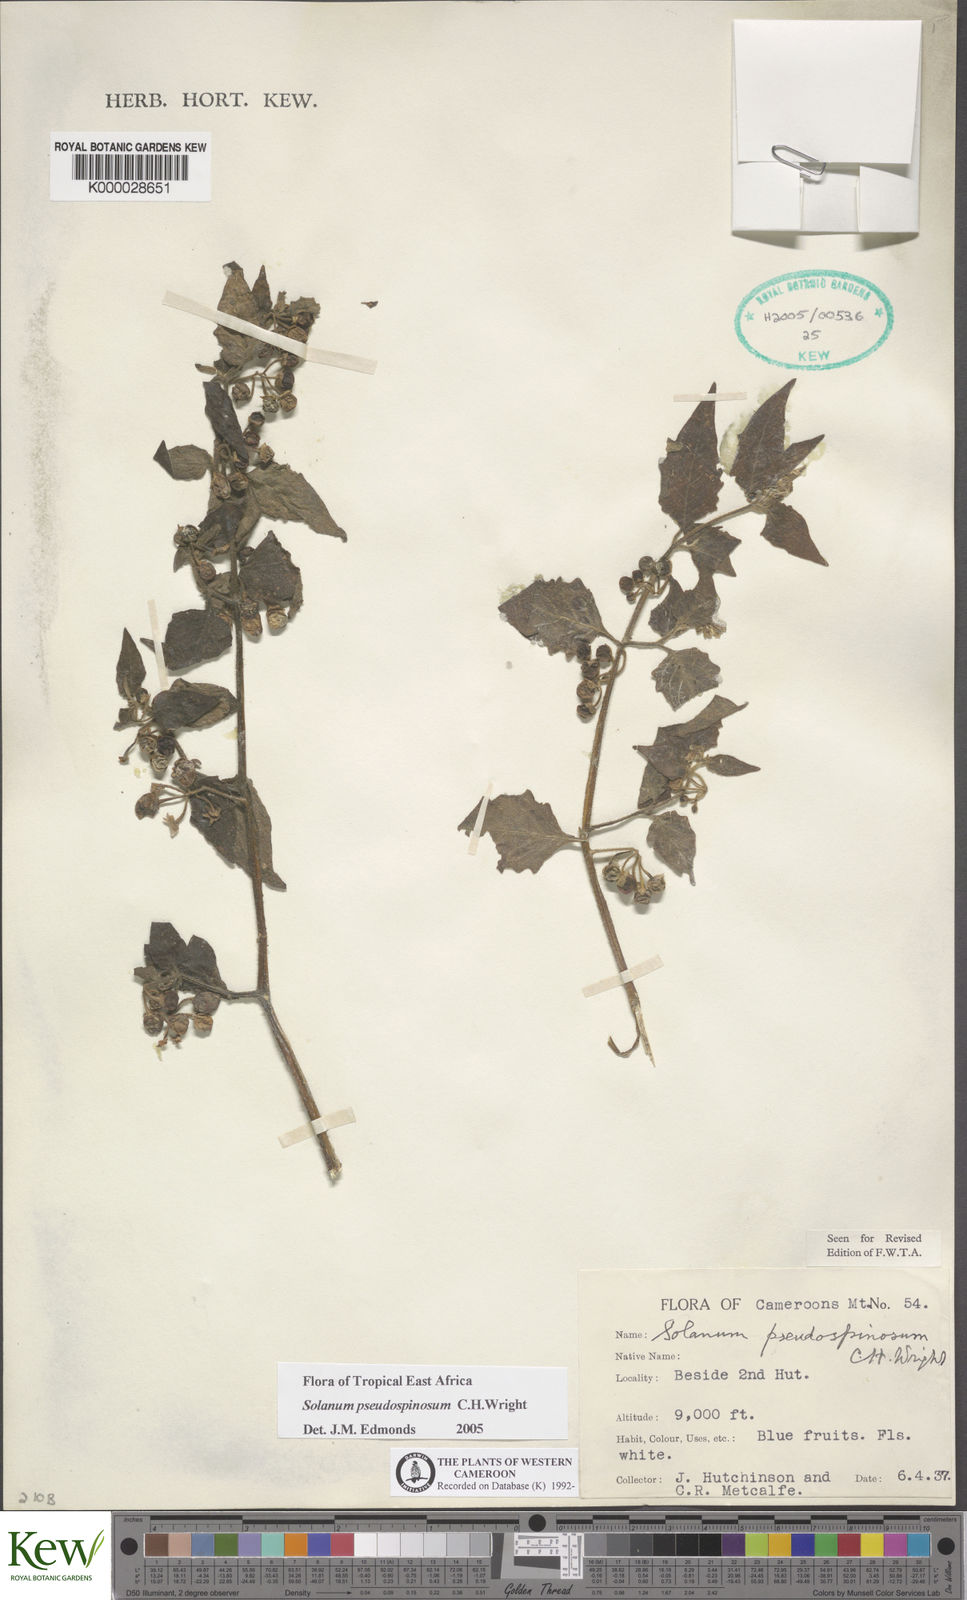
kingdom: Plantae
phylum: Tracheophyta
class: Magnoliopsida
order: Solanales
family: Solanaceae
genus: Solanum
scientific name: Solanum pseudospinosum
